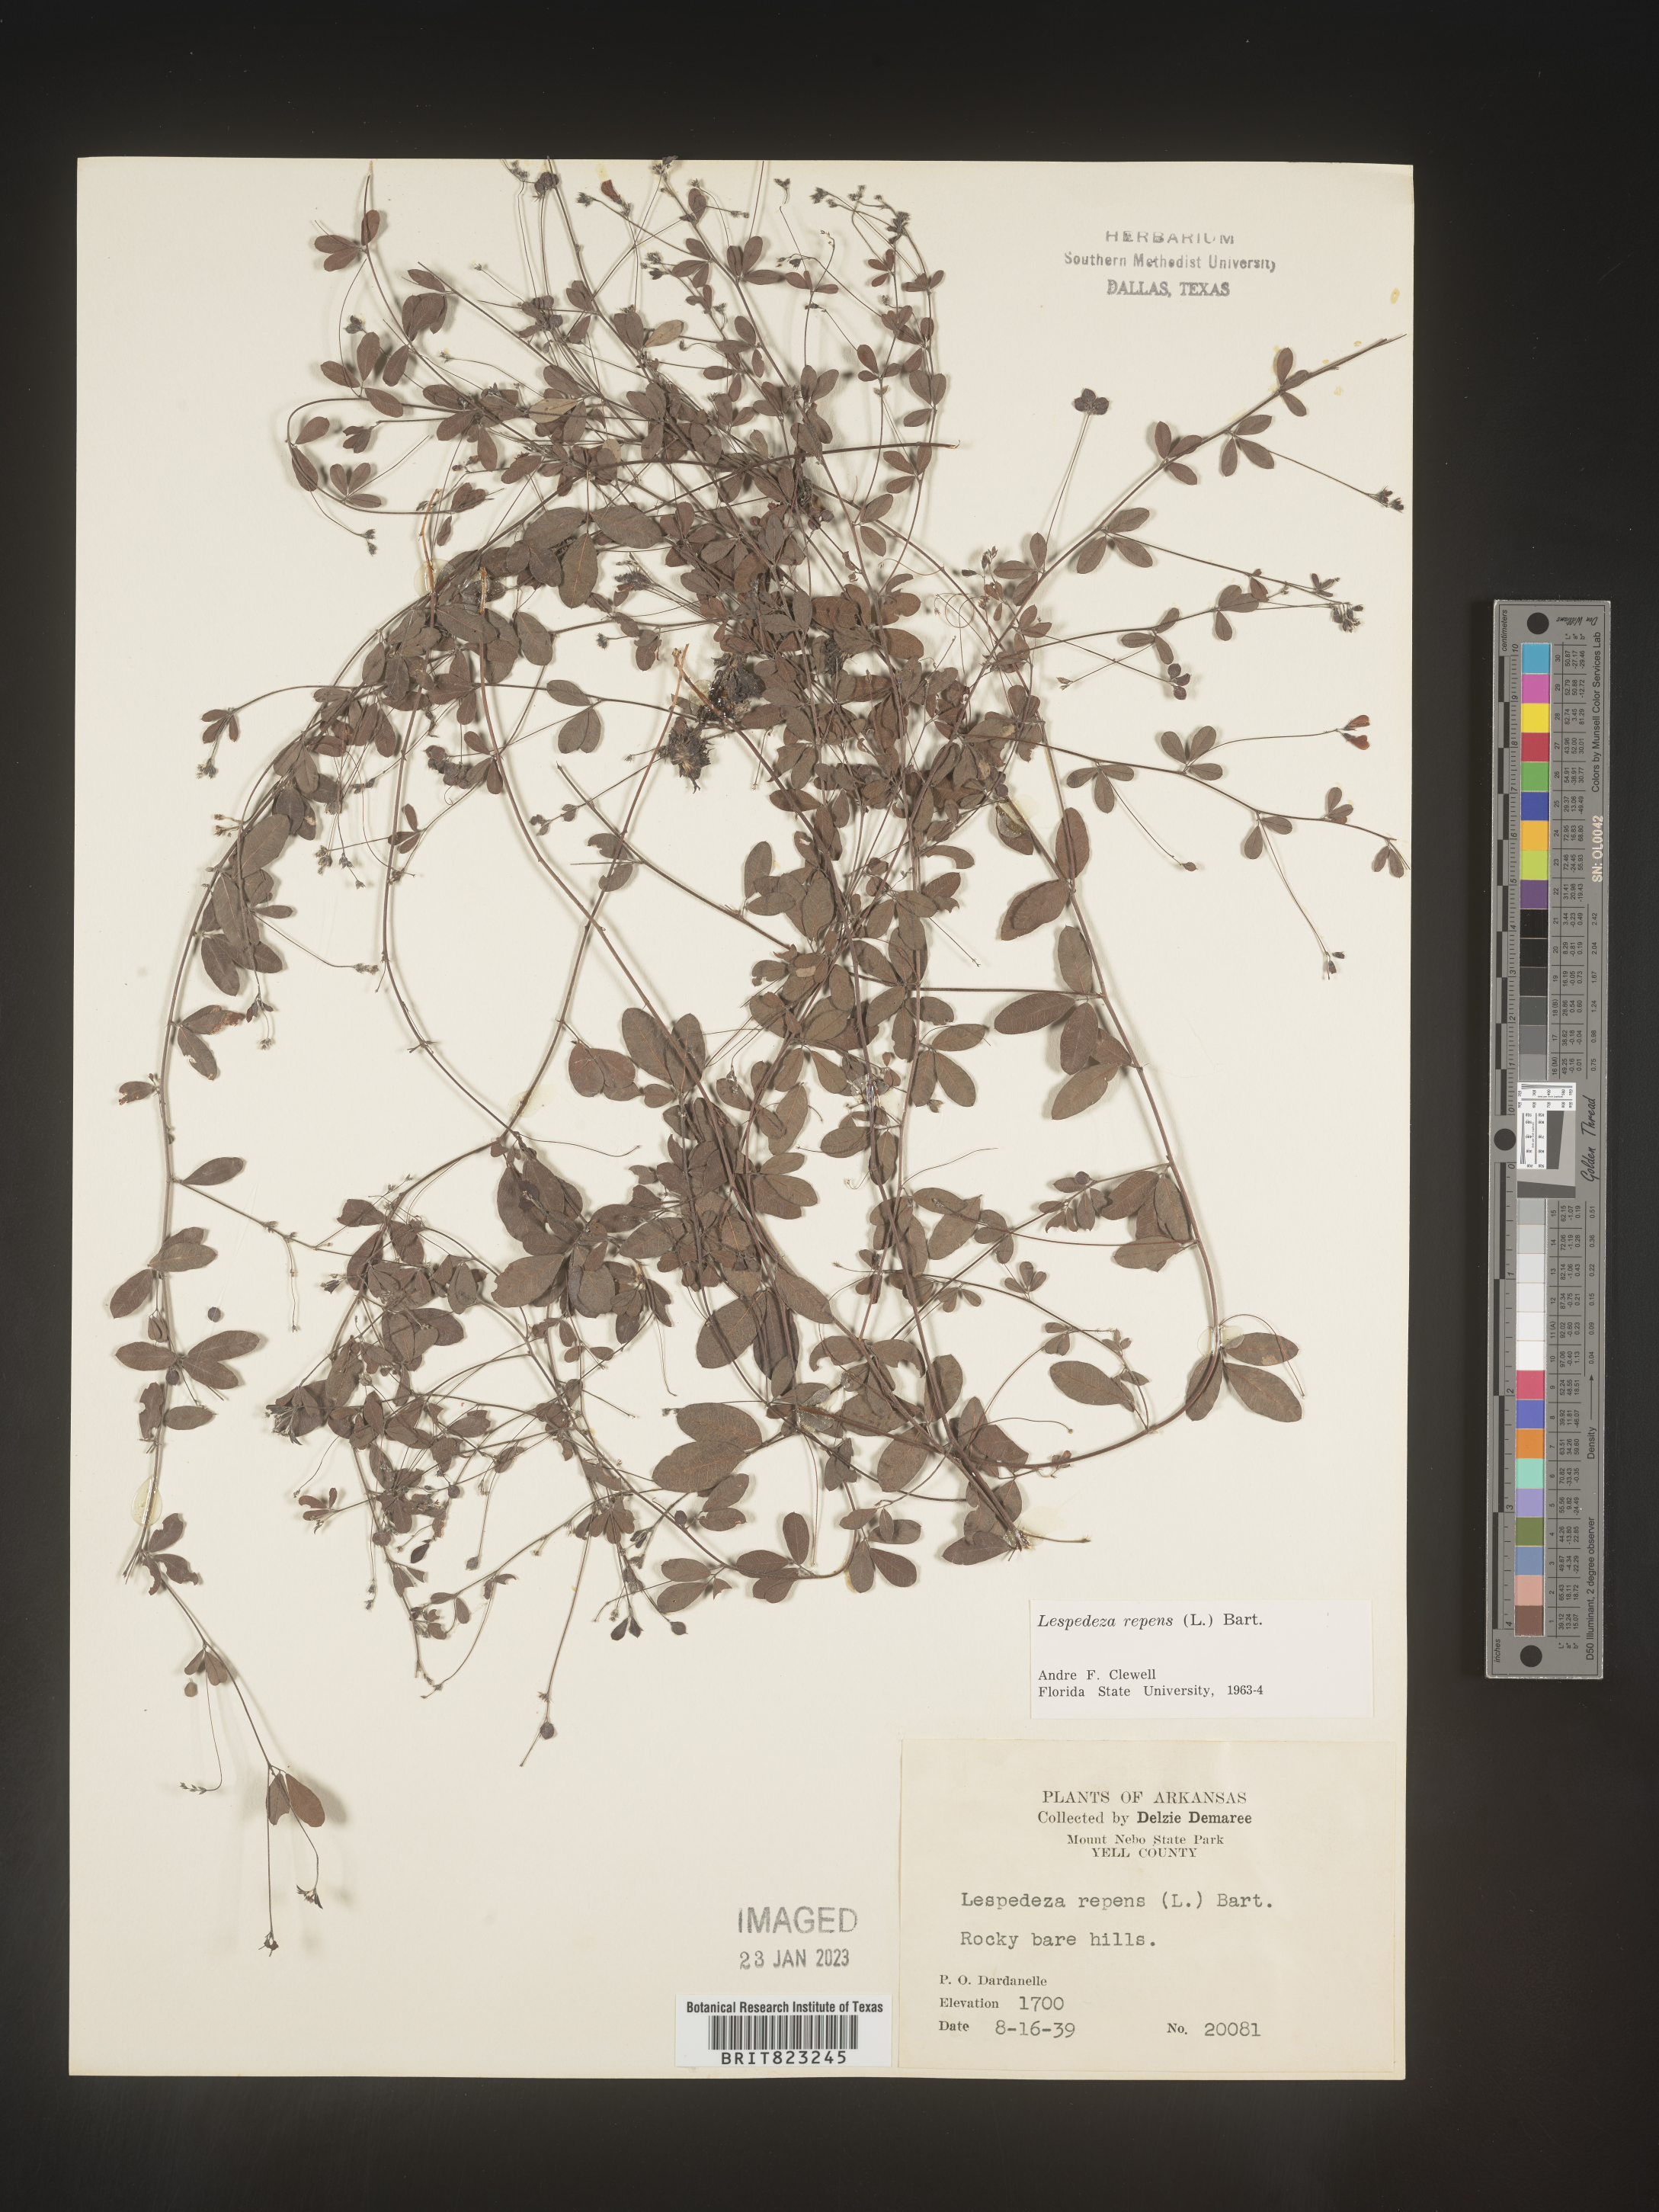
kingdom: Plantae
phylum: Tracheophyta
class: Magnoliopsida
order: Fabales
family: Fabaceae
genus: Lespedeza
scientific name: Lespedeza repens
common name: Creeping bush-clover
